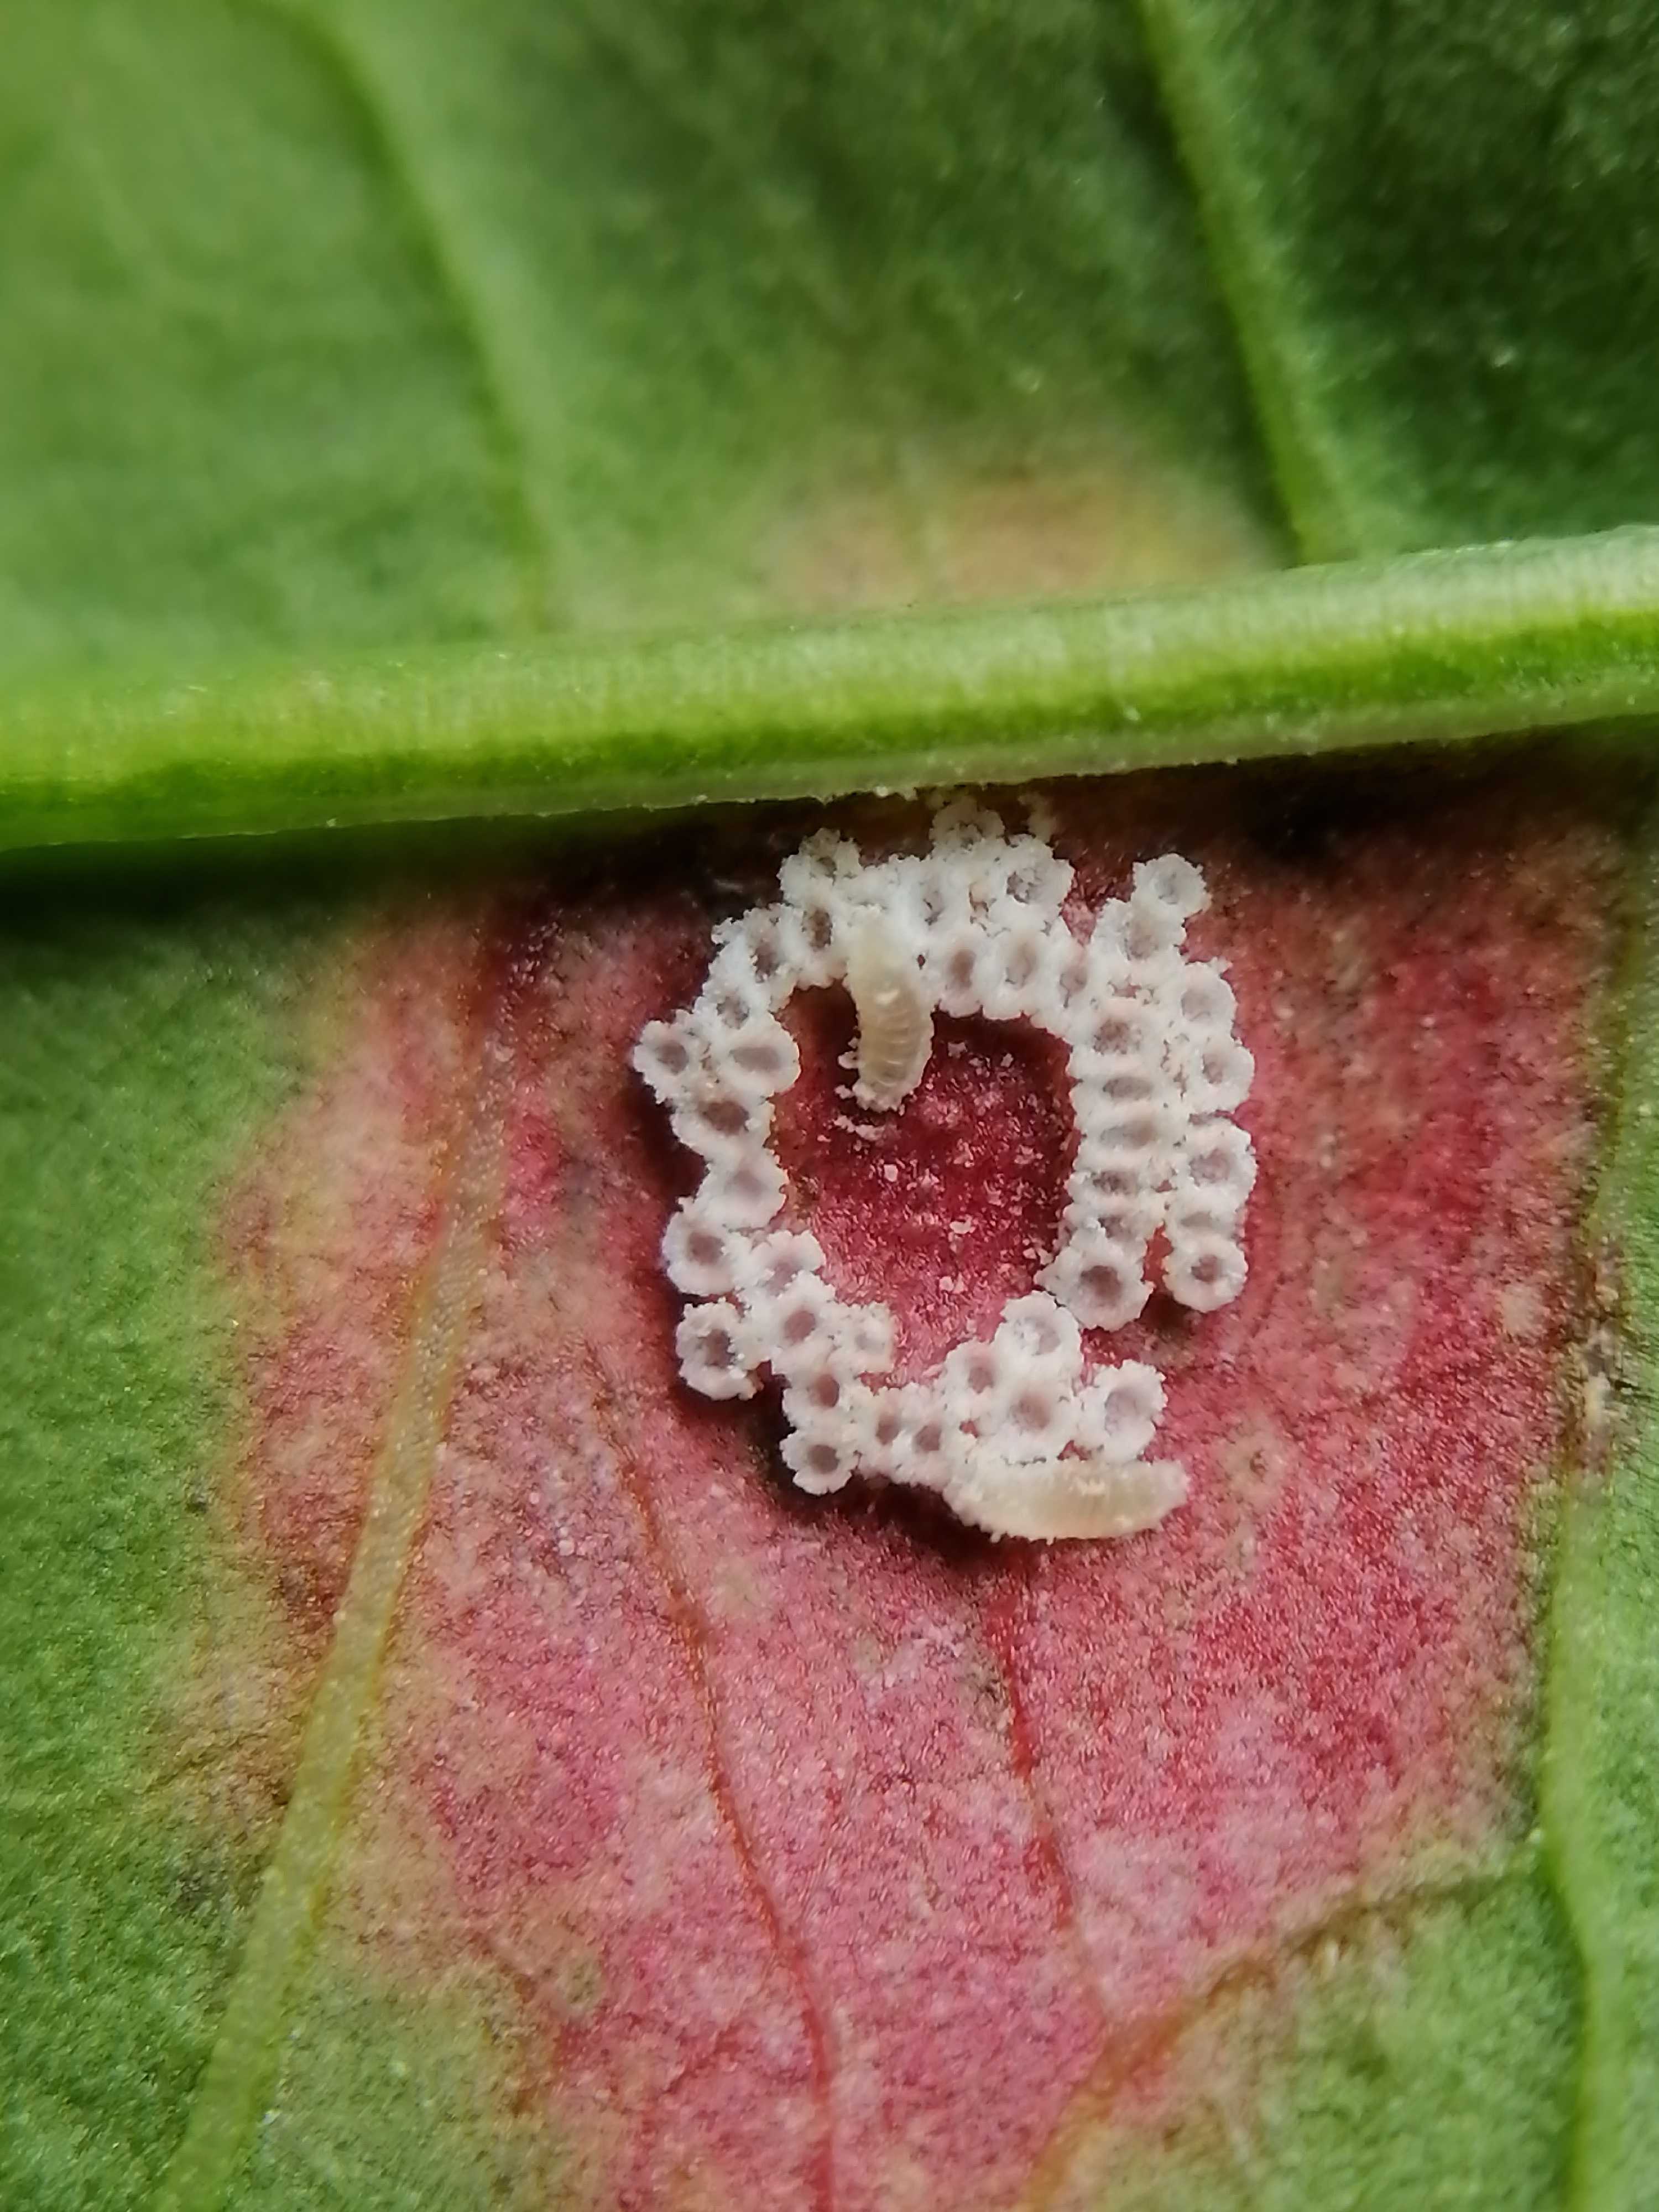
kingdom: Fungi
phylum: Basidiomycota
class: Pucciniomycetes
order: Pucciniales
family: Pucciniaceae
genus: Puccinia
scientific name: Puccinia phragmitis
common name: tagrør-tvecellerust
